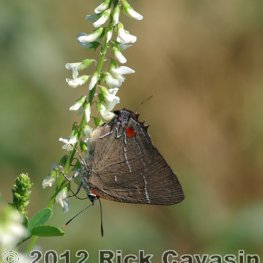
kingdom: Animalia
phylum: Arthropoda
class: Insecta
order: Lepidoptera
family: Lycaenidae
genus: Parrhasius
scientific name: Parrhasius m-album
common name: White-m Hairstreak
